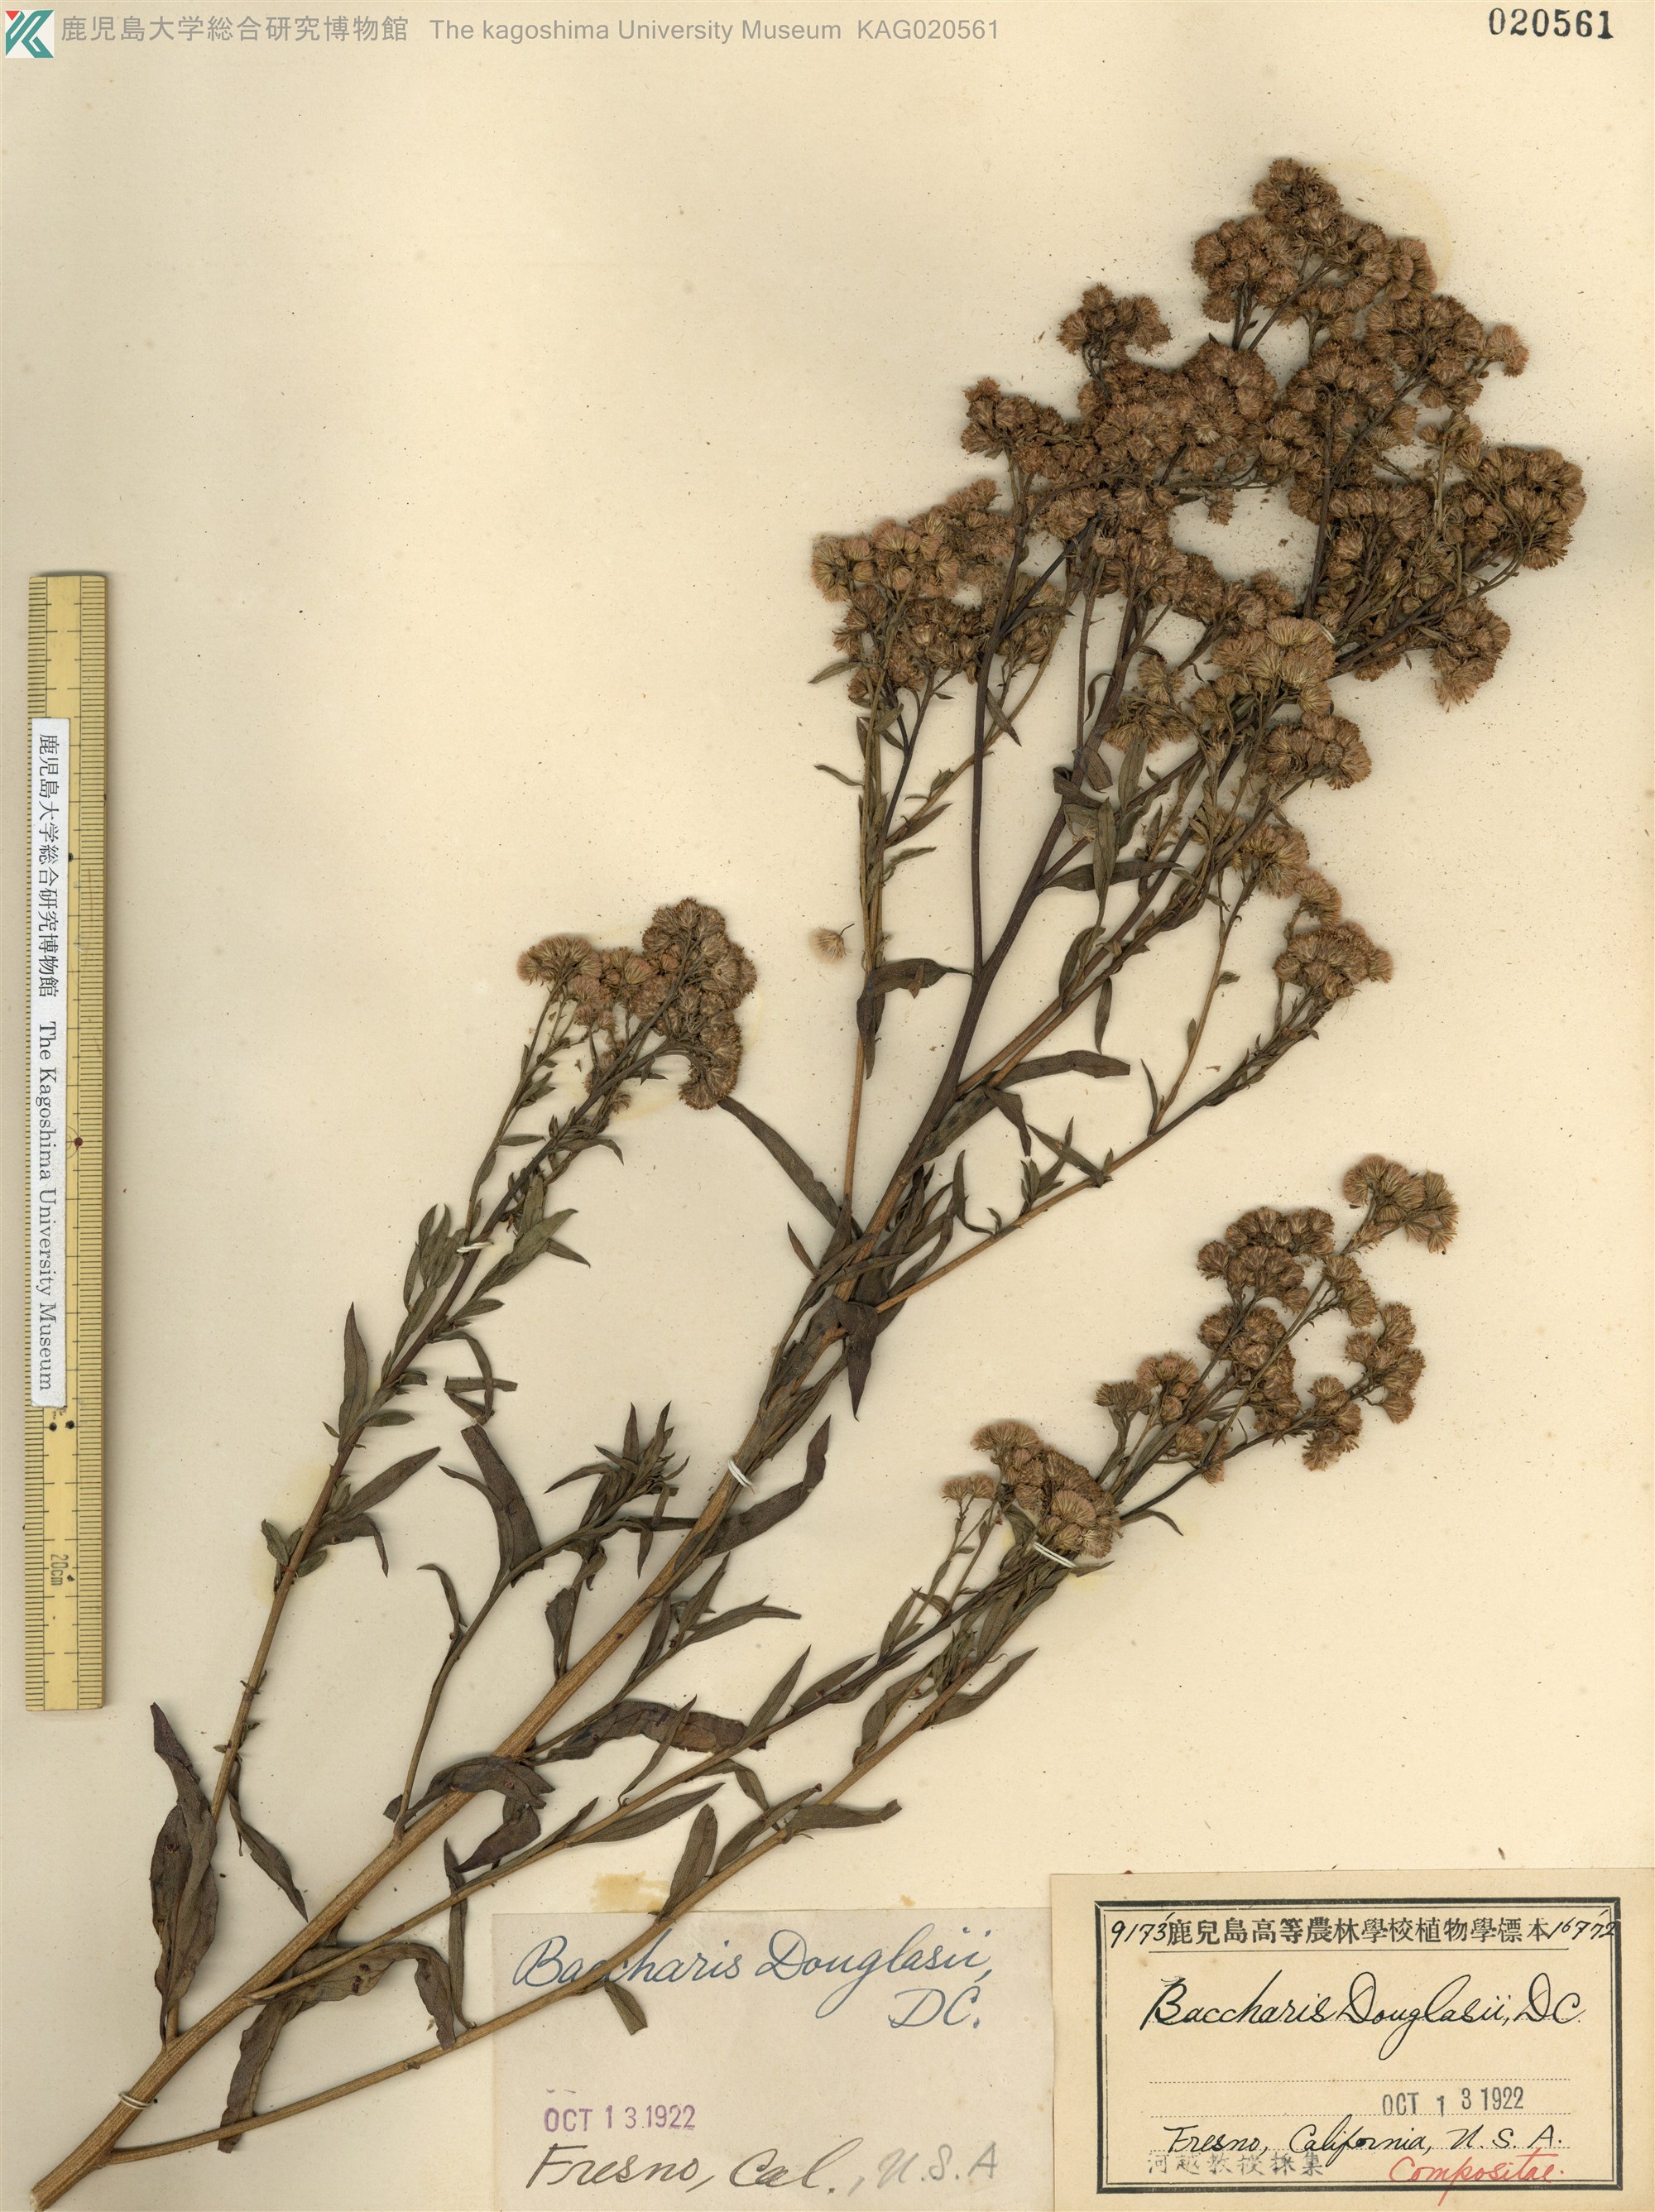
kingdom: Plantae
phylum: Tracheophyta
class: Magnoliopsida
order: Asterales
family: Asteraceae
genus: Baccharis
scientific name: Baccharis douglasii
